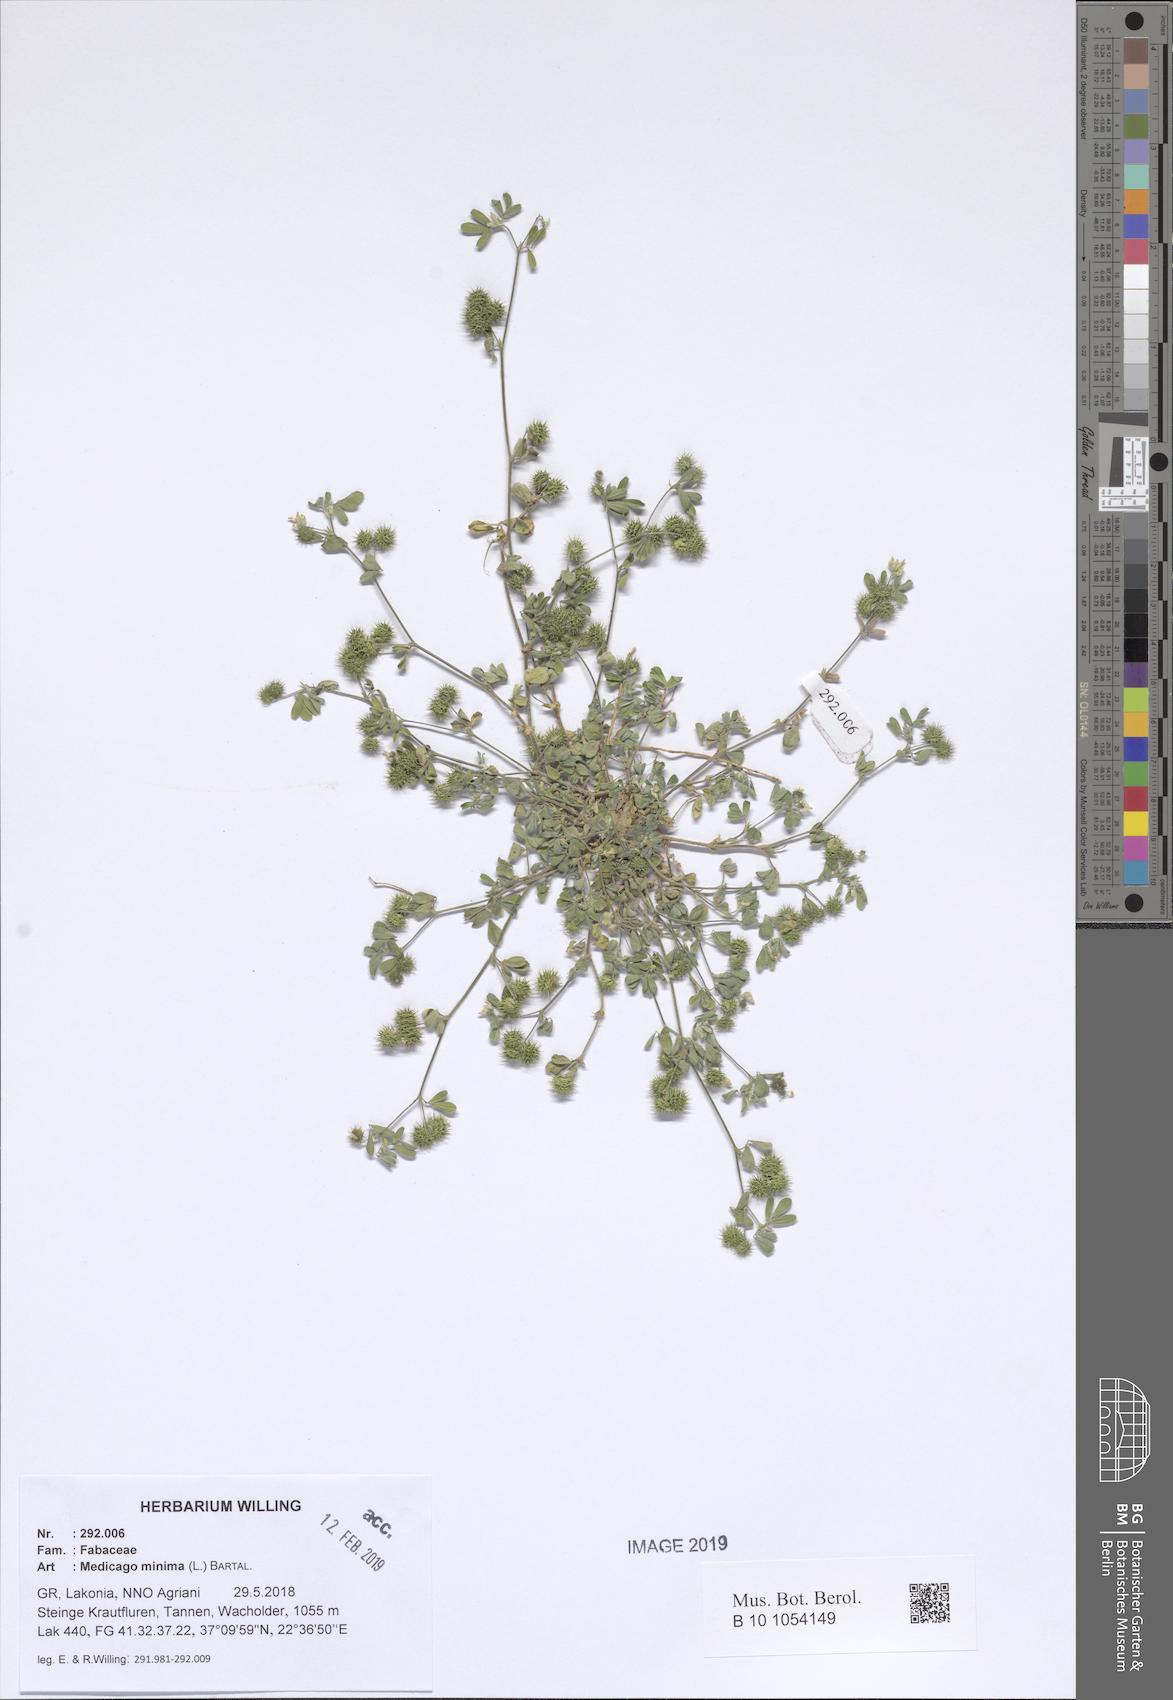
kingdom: Plantae
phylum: Tracheophyta
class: Magnoliopsida
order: Fabales
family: Fabaceae
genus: Medicago
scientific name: Medicago minima
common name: Little bur-clover
